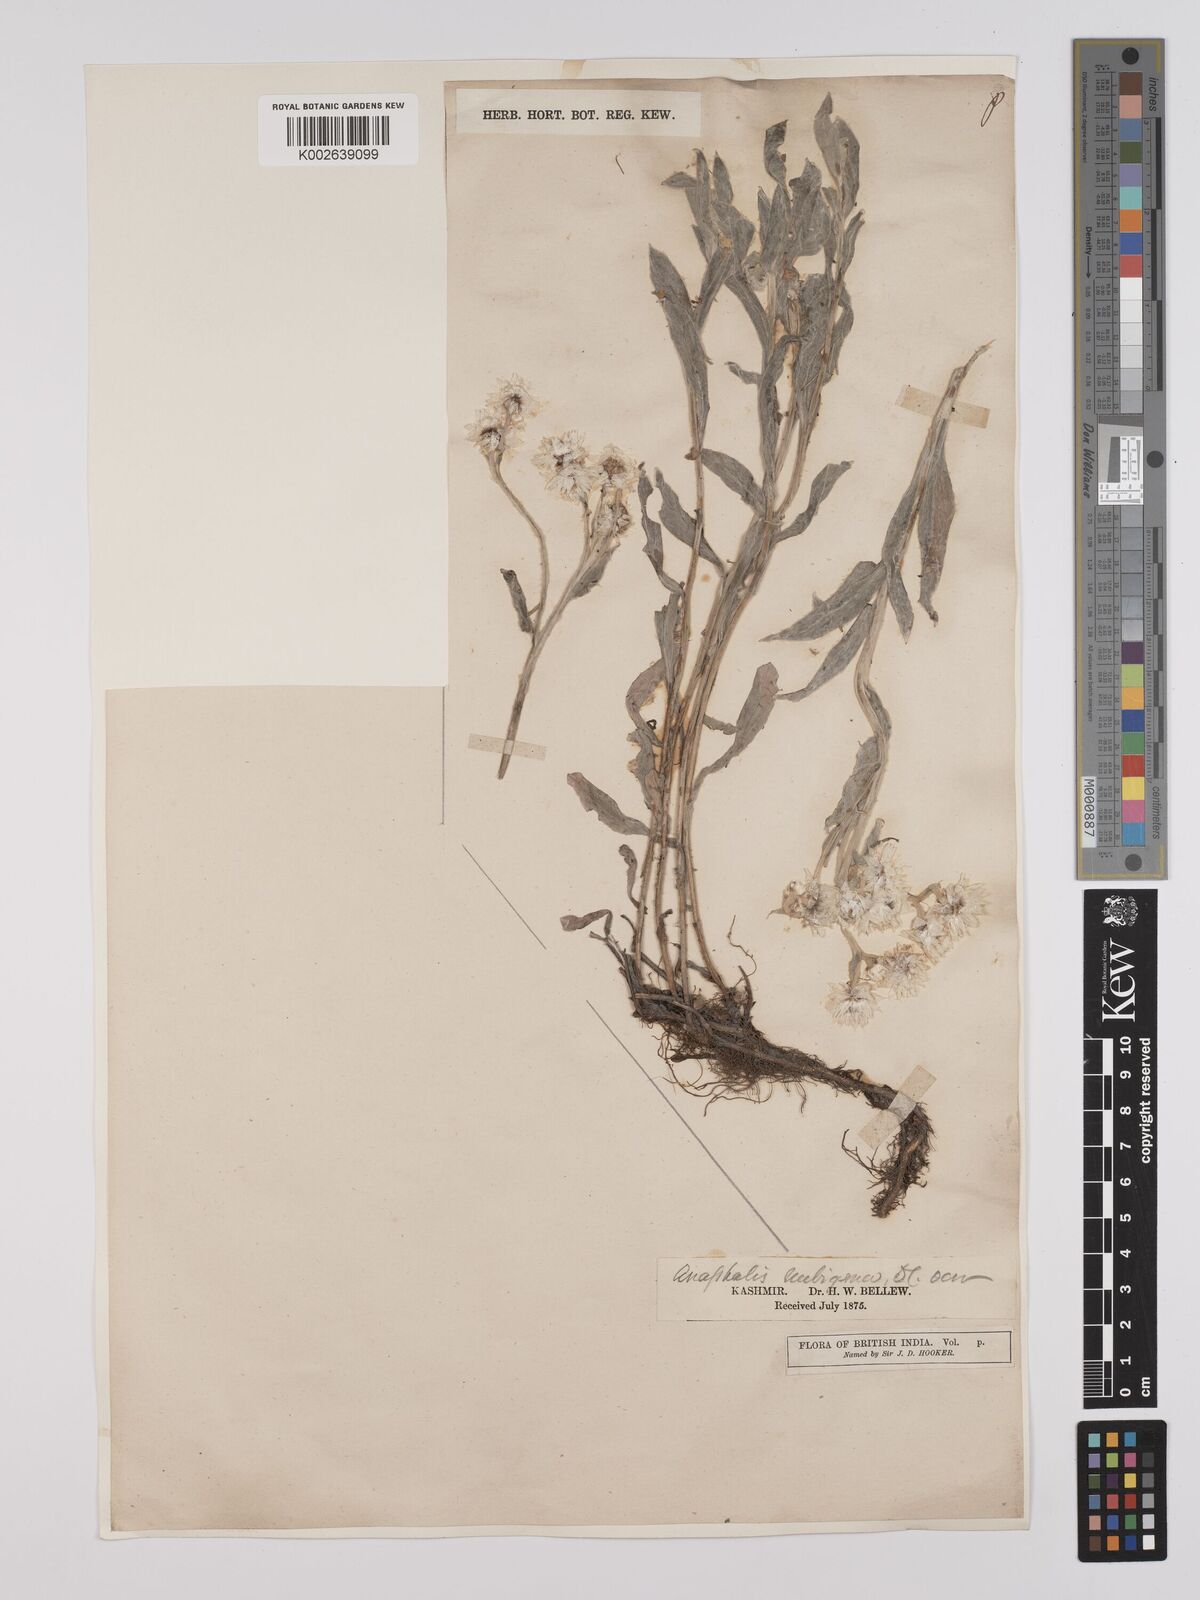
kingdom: Plantae
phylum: Tracheophyta
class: Magnoliopsida
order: Asterales
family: Asteraceae
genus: Anaphalioides
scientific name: Anaphalioides trinervis
